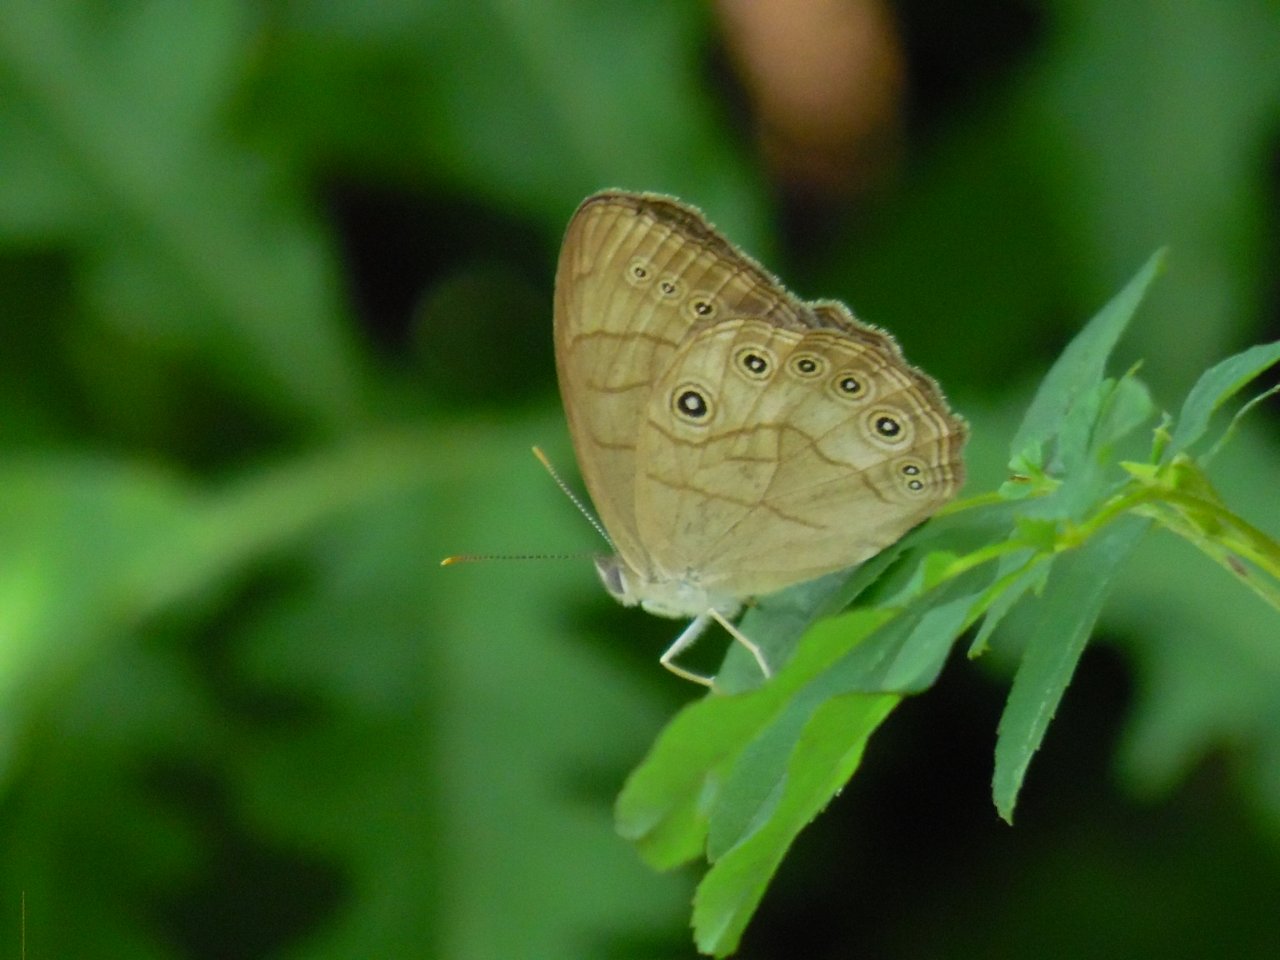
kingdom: Animalia
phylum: Arthropoda
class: Insecta
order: Lepidoptera
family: Nymphalidae
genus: Lethe
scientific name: Lethe eurydice
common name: Appalachian Eyed Brown
